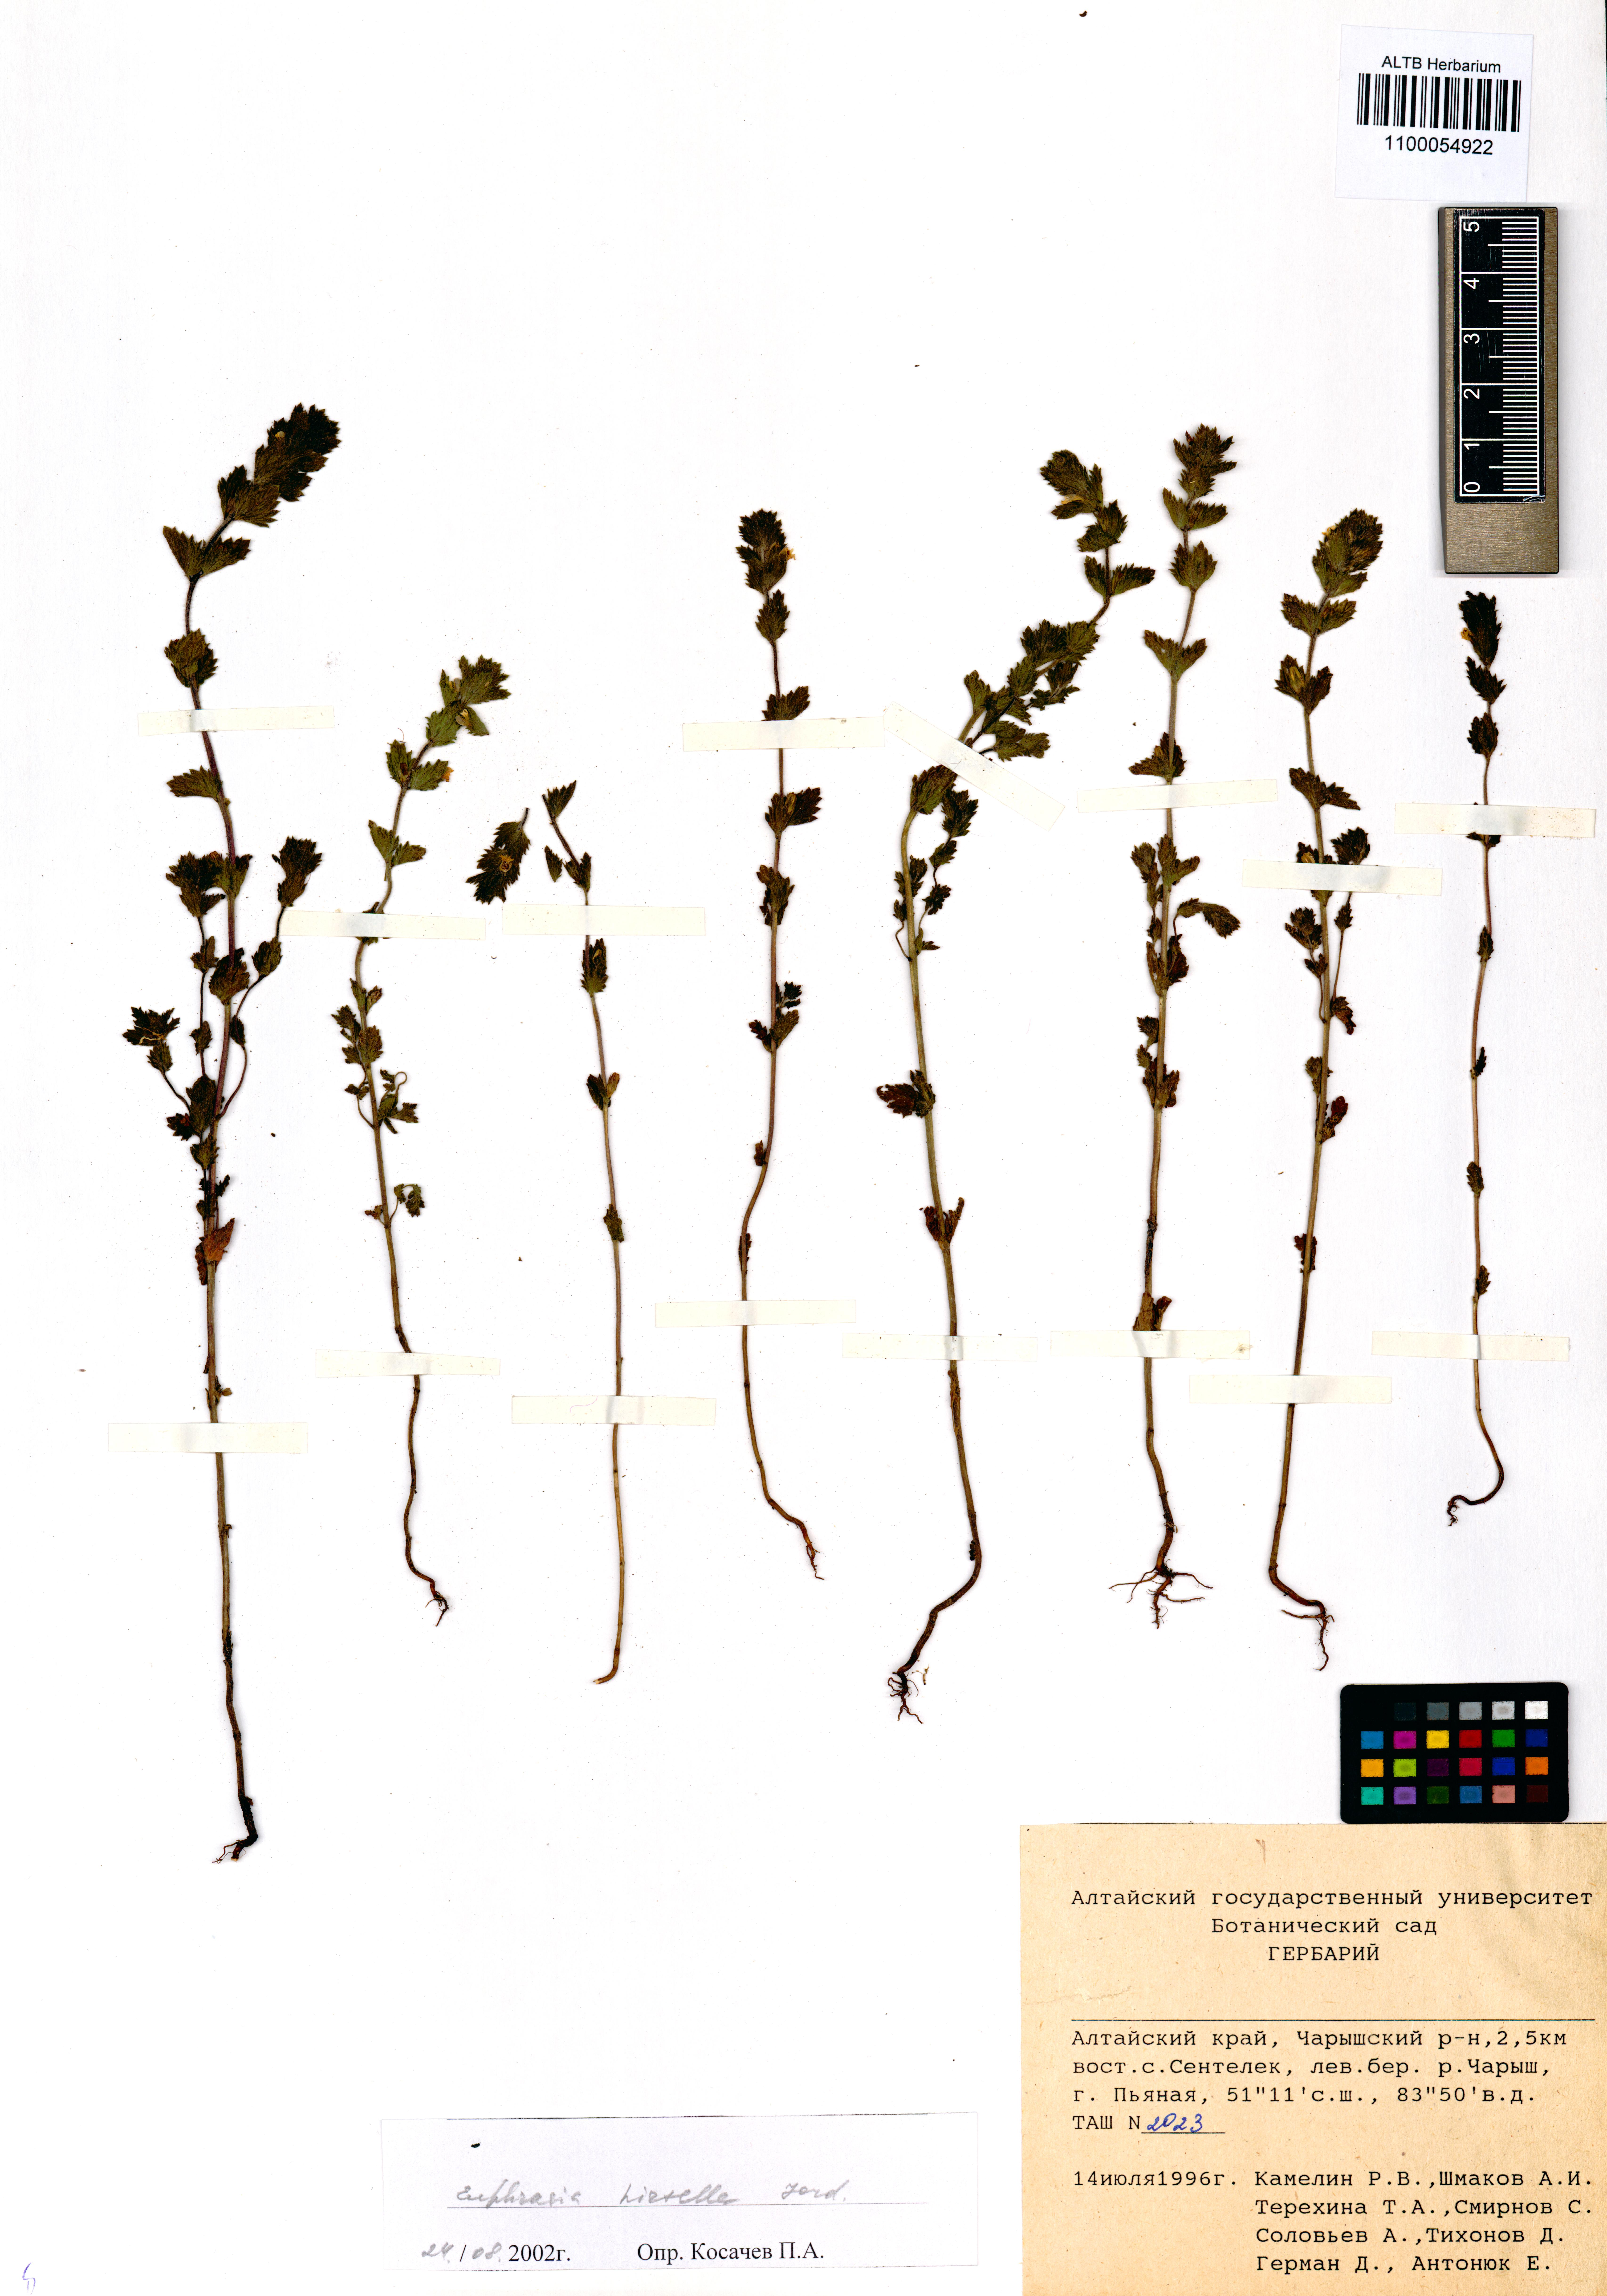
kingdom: Plantae
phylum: Tracheophyta
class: Magnoliopsida
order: Lamiales
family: Orobanchaceae
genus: Euphrasia
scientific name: Euphrasia hirtella
